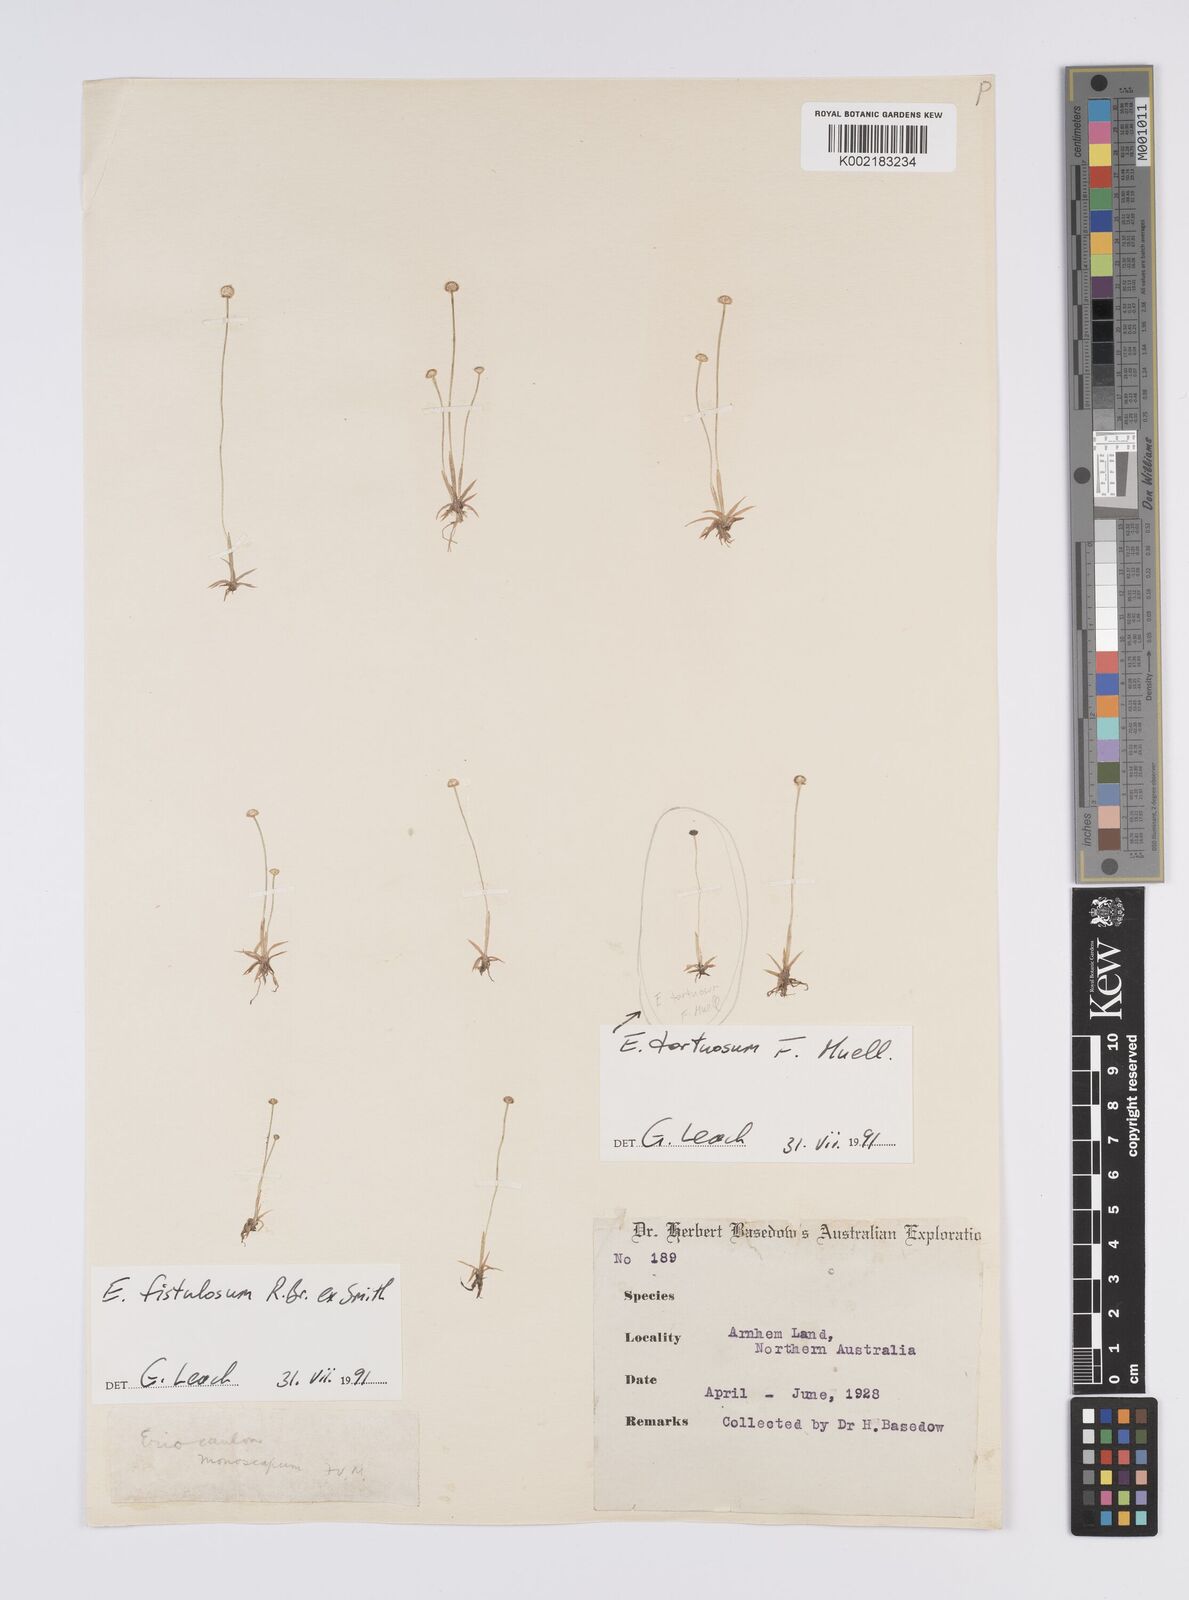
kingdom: Plantae
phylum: Tracheophyta
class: Liliopsida
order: Poales
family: Eriocaulaceae
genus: Eriocaulon
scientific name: Eriocaulon fistulosum
